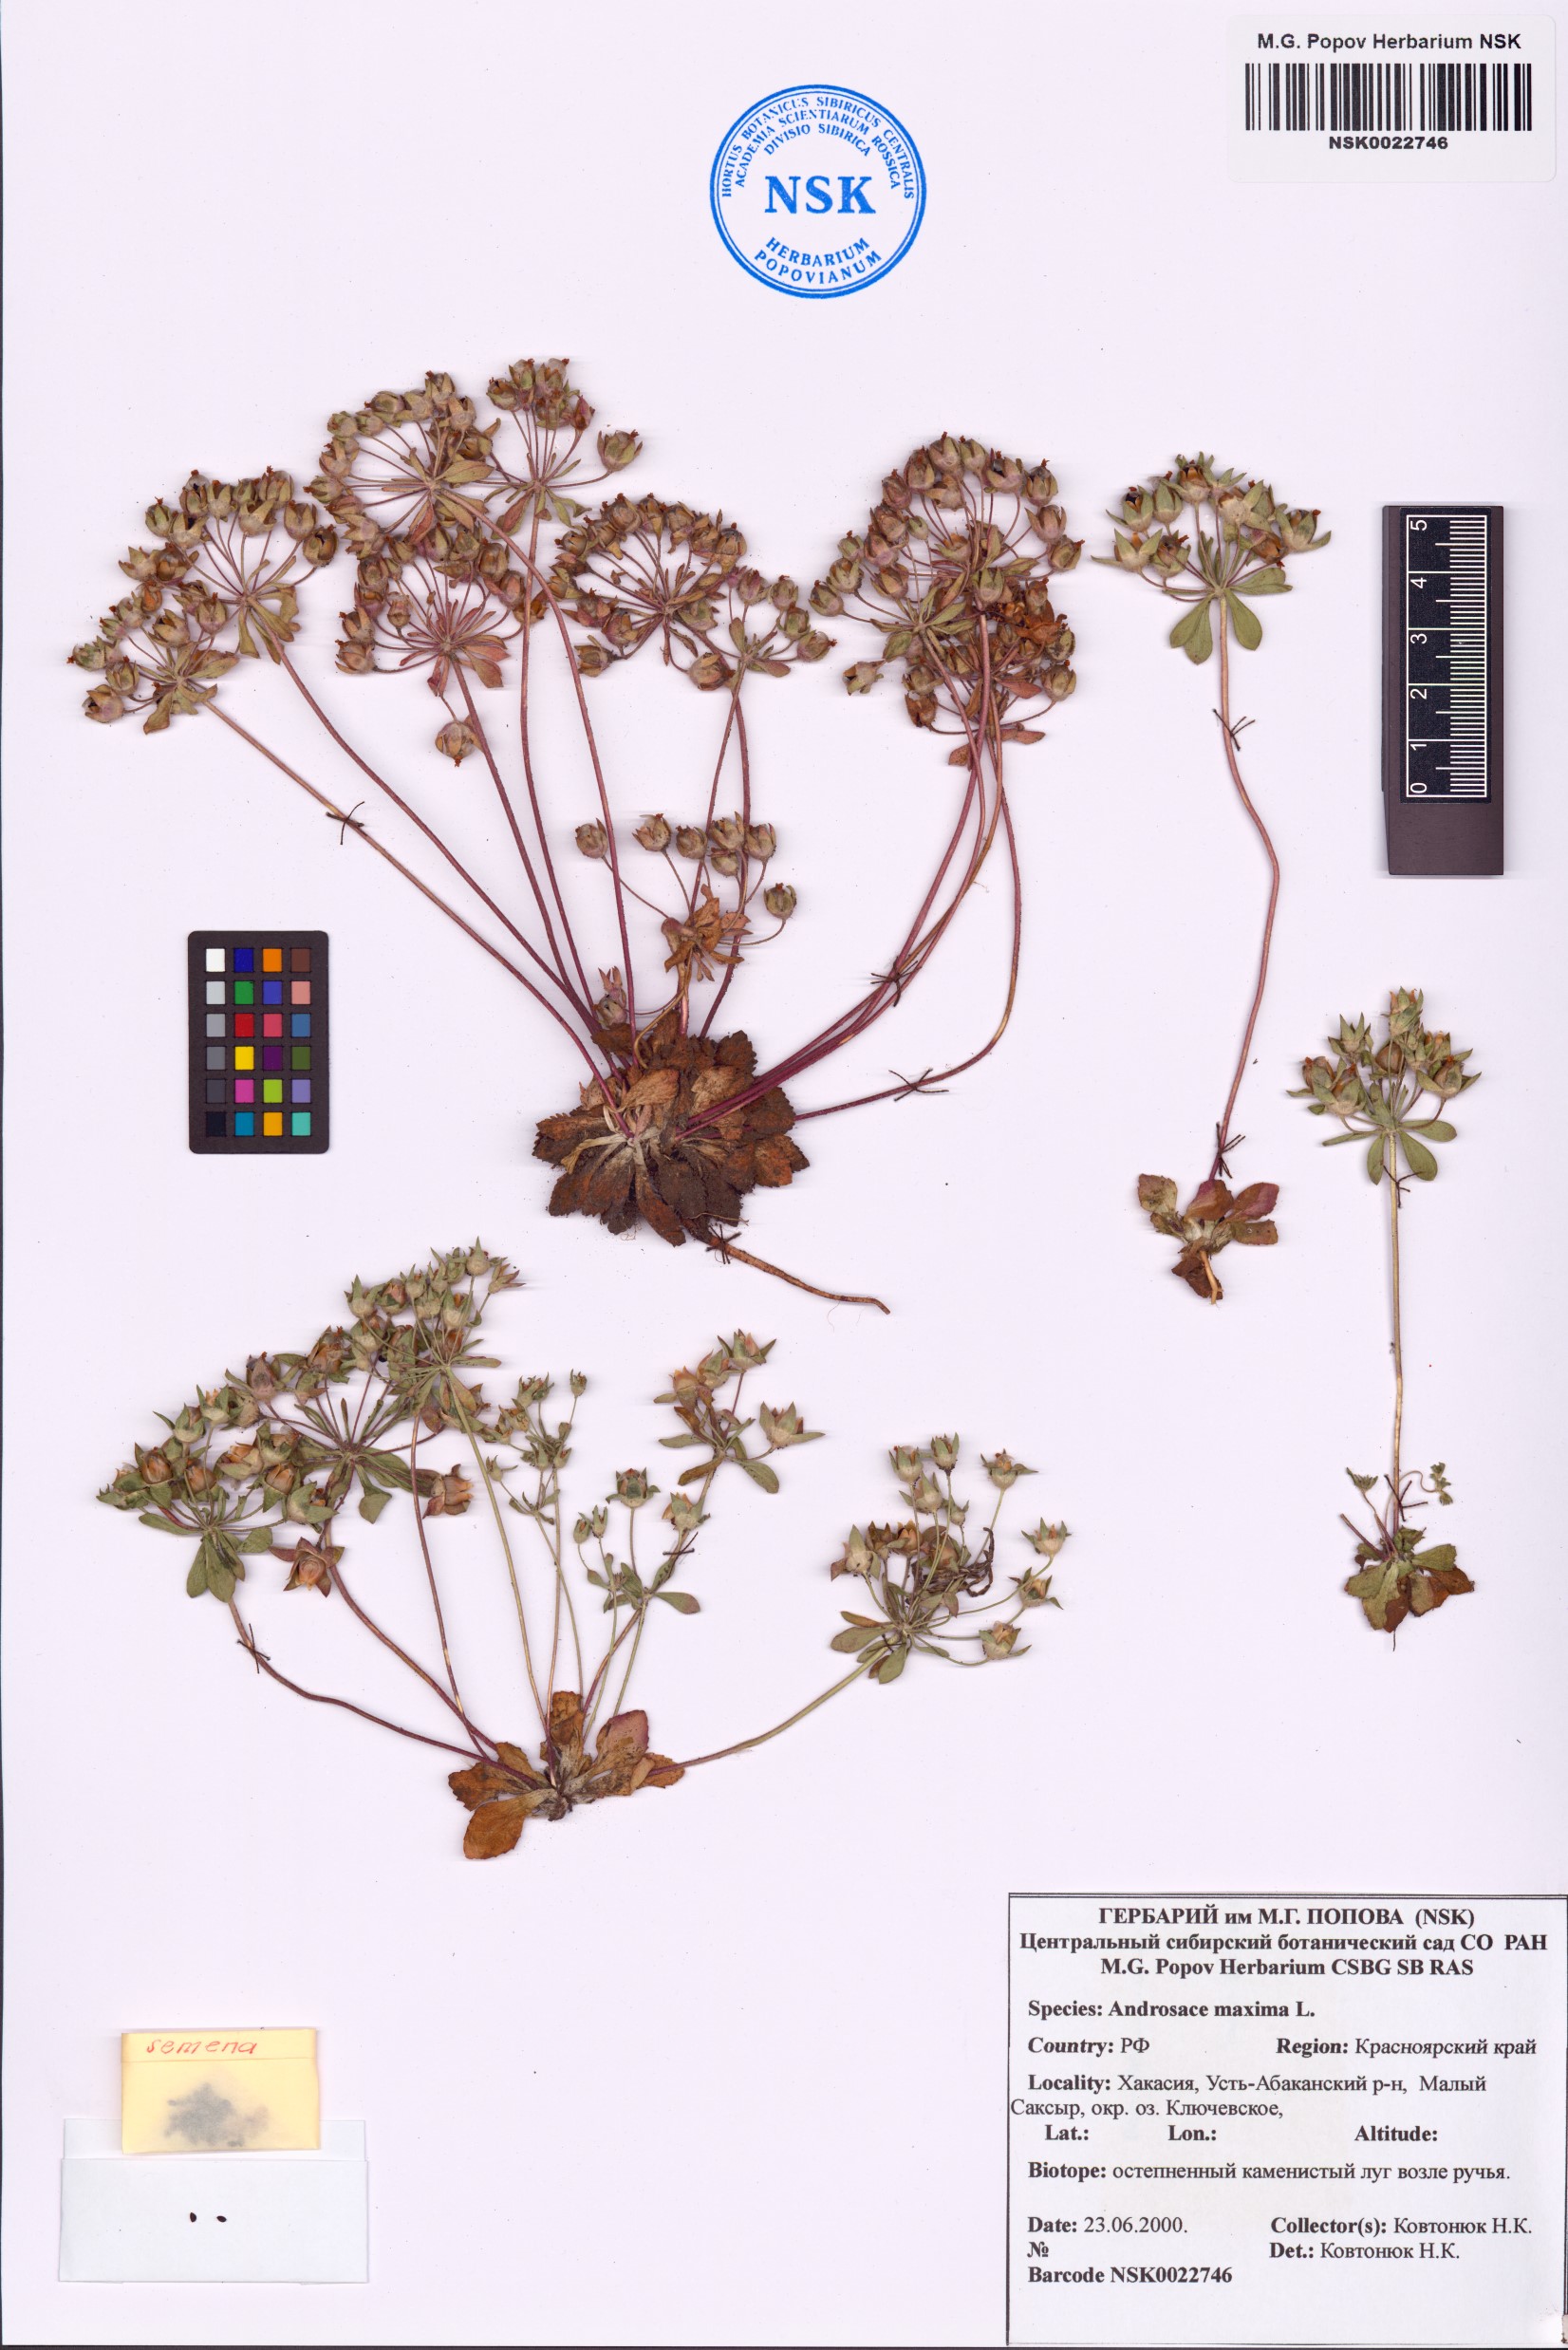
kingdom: Plantae
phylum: Tracheophyta
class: Magnoliopsida
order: Ericales
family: Primulaceae
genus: Androsace
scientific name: Androsace maxima
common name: Annual androsace
